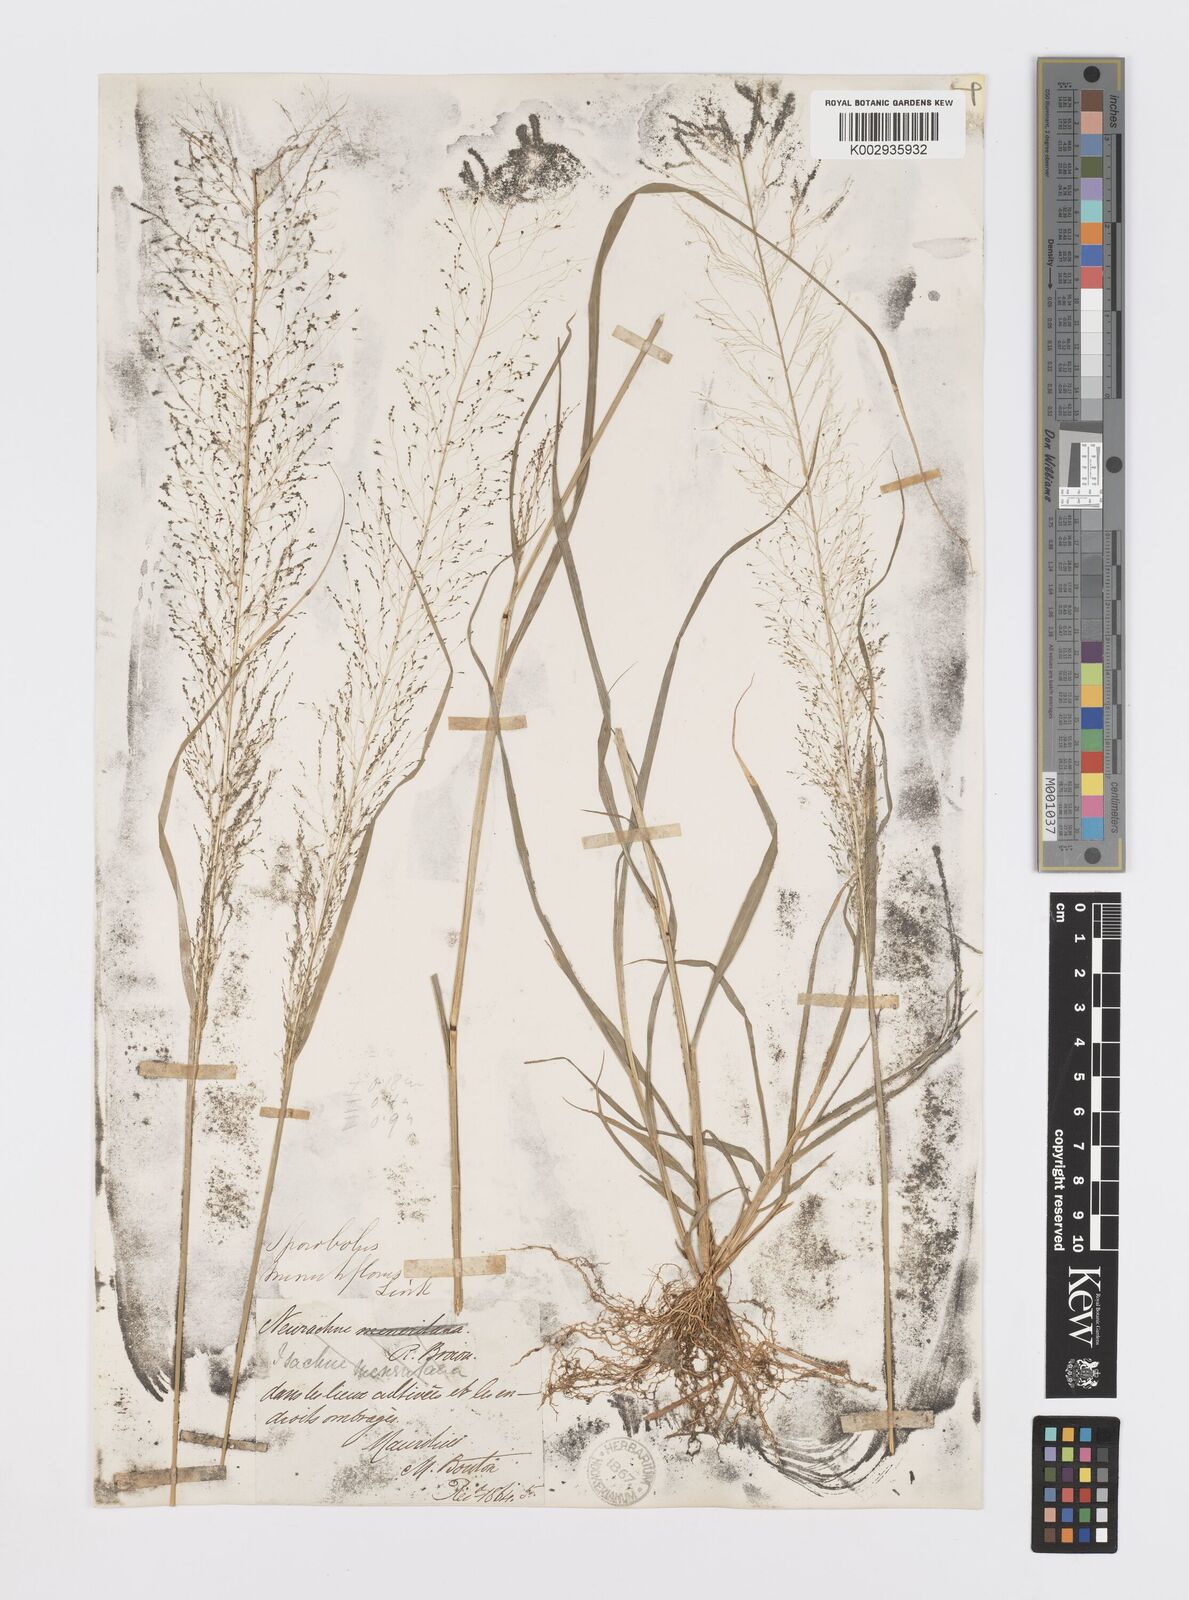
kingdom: Plantae
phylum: Tracheophyta
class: Liliopsida
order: Poales
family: Poaceae
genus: Sporobolus
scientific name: Sporobolus tenuissimus
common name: Tropical dropseed
